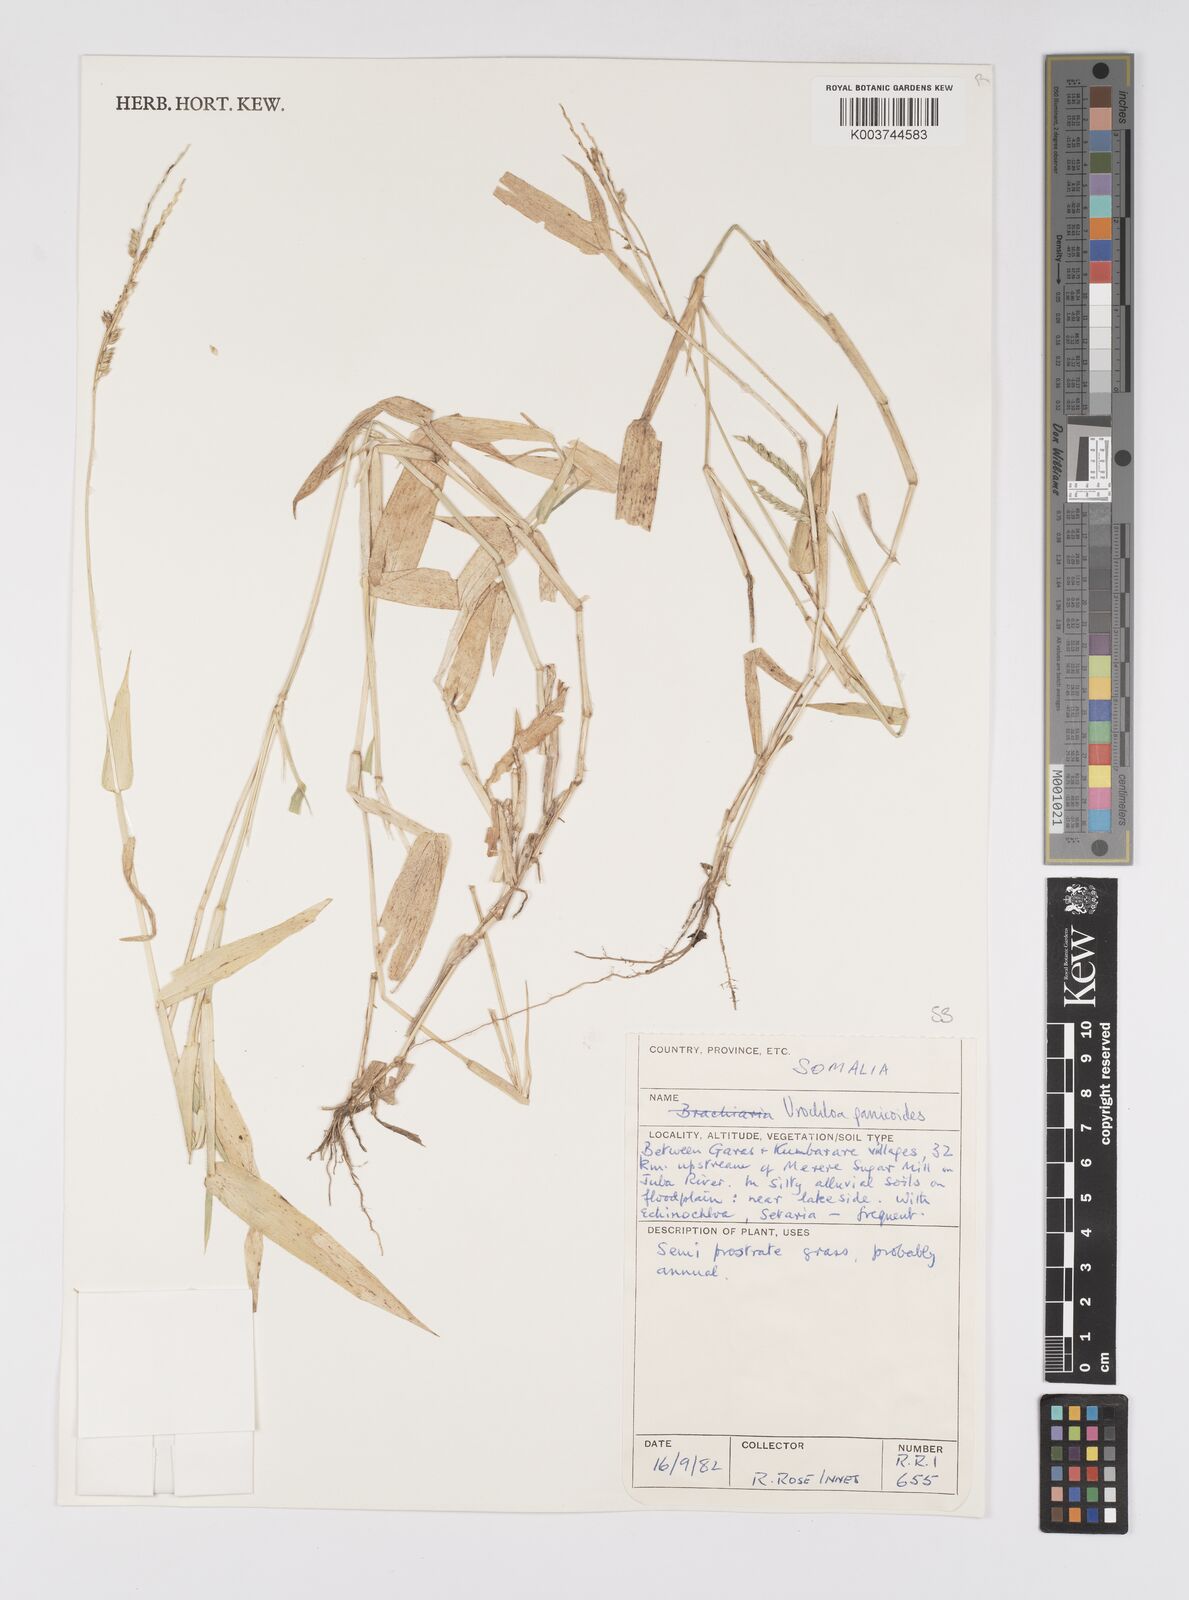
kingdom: Plantae
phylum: Tracheophyta
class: Liliopsida
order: Poales
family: Poaceae
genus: Urochloa
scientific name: Urochloa panicoides
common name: Sharp-flowered signal-grass
